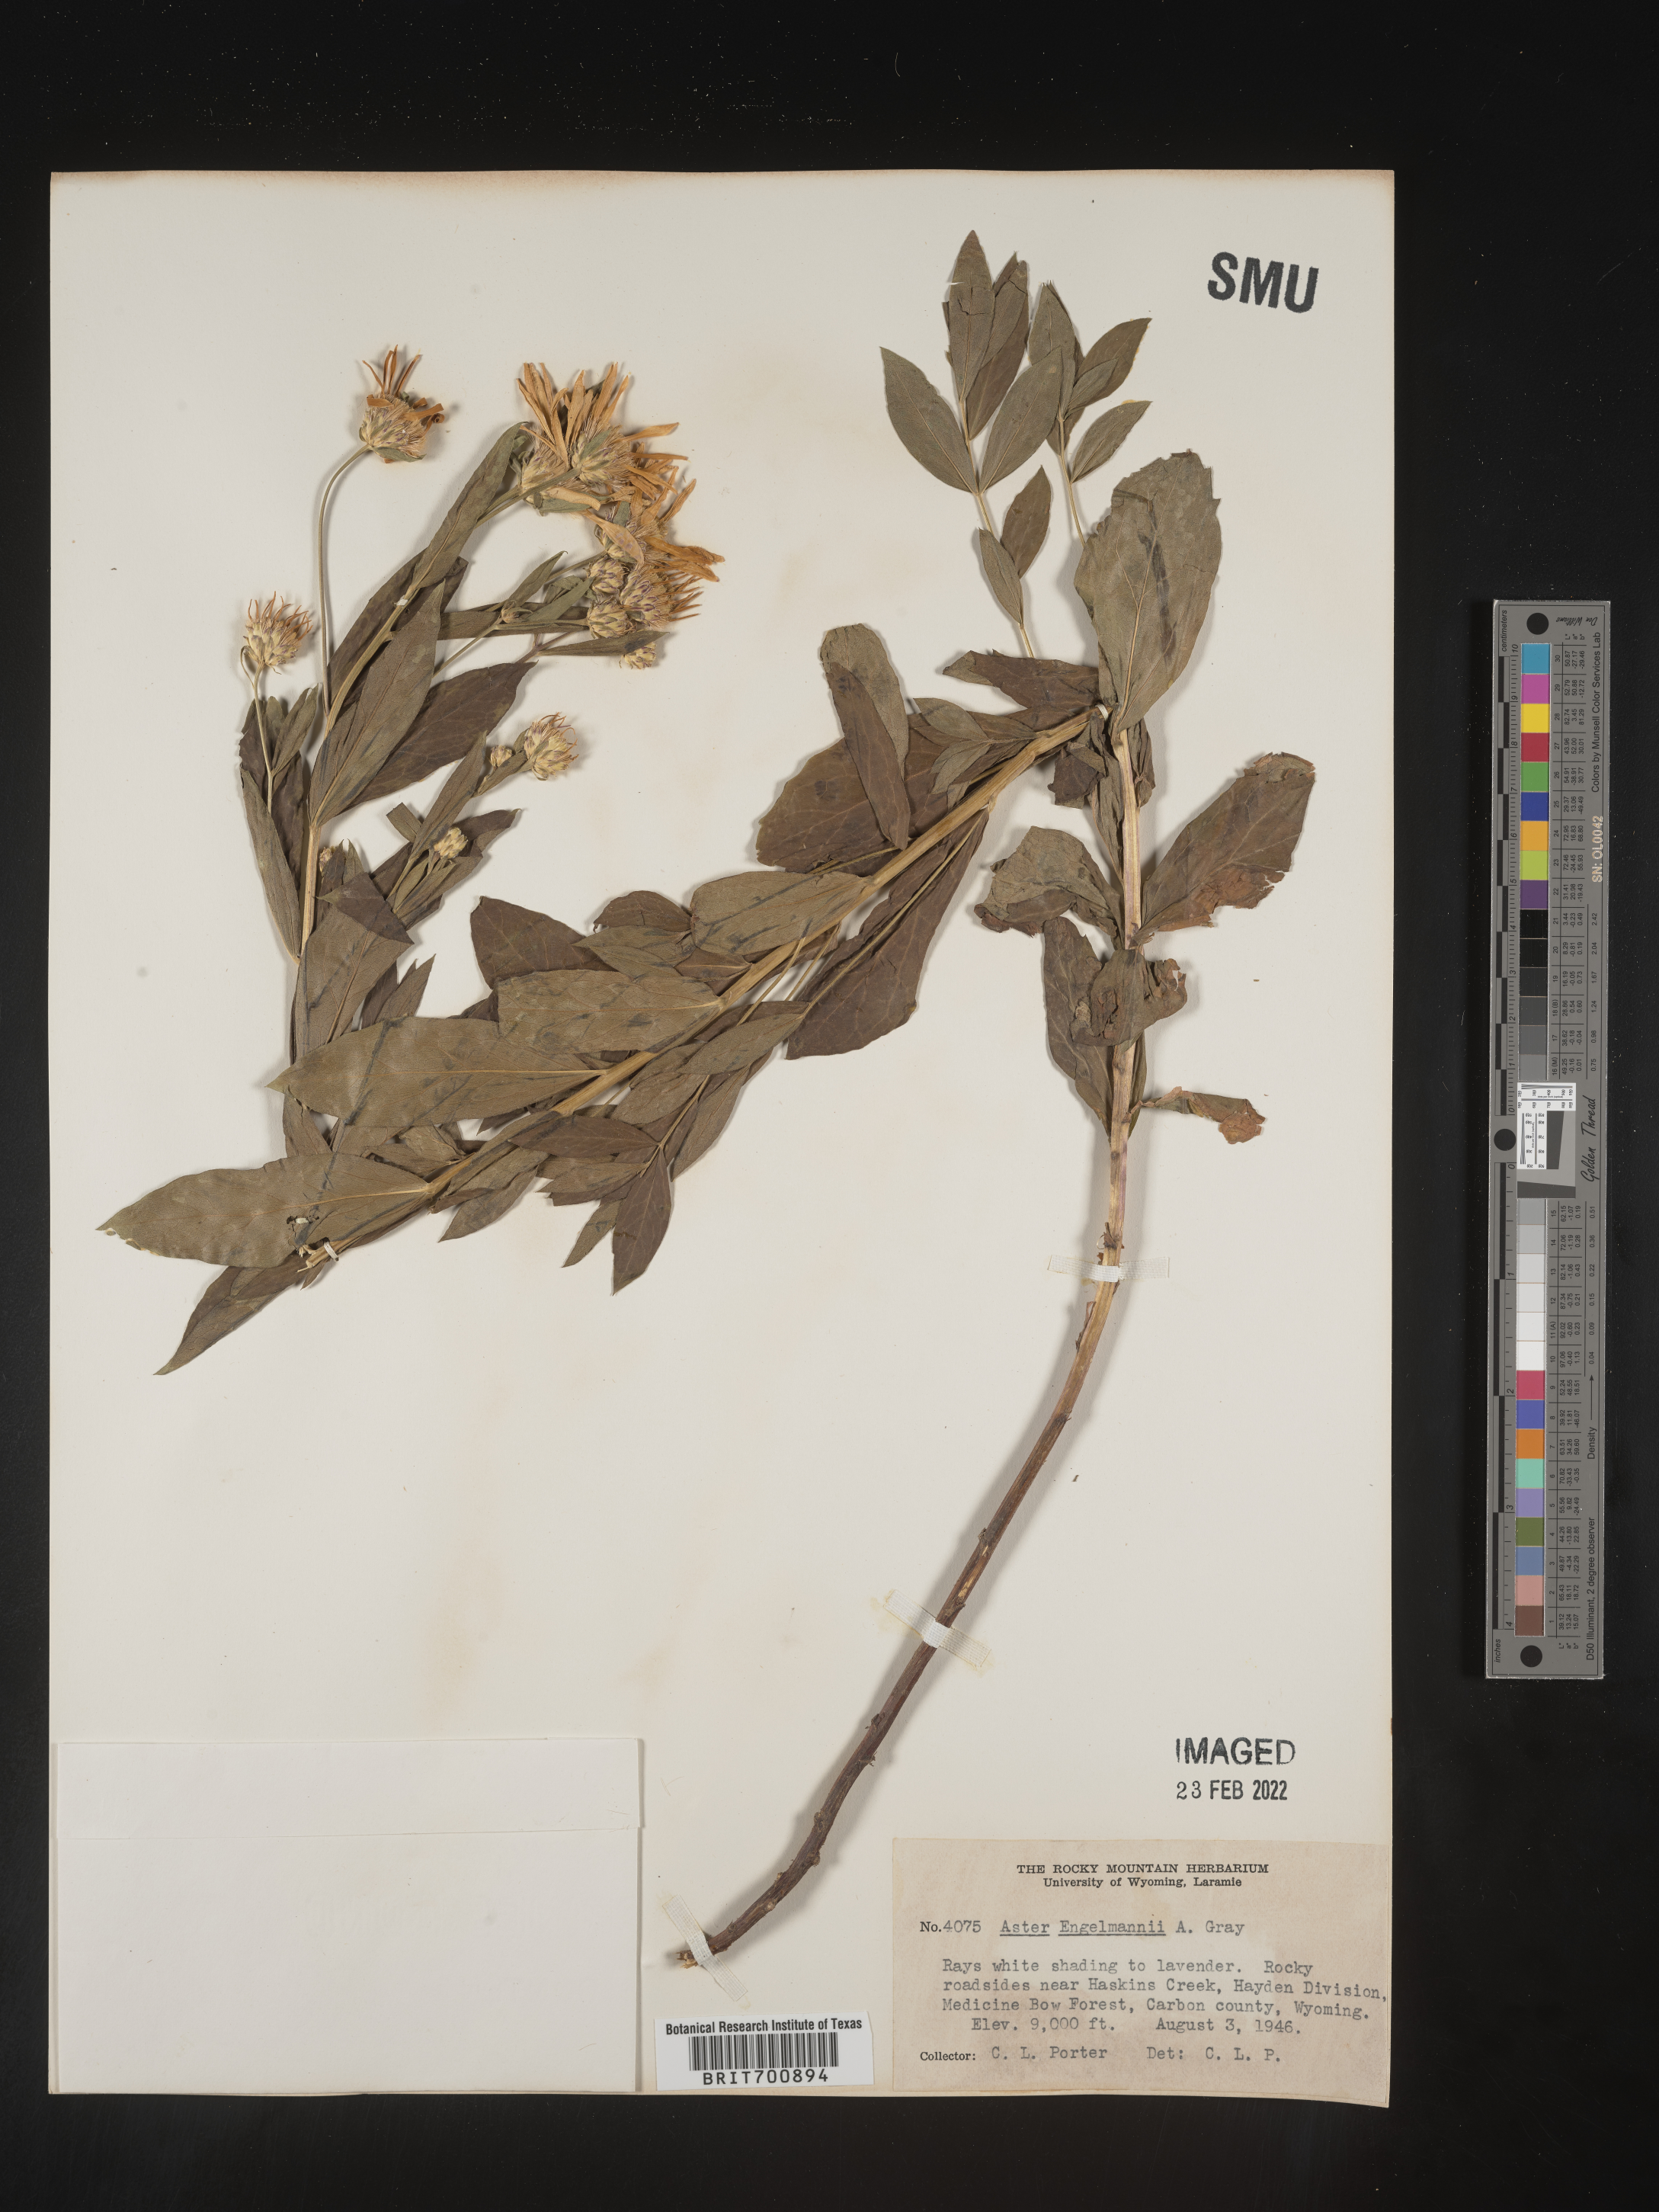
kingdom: Plantae
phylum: Tracheophyta
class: Magnoliopsida
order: Asterales
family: Asteraceae
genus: Eucephalus
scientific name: Eucephalus engelmannii
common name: Engelmann's aster
